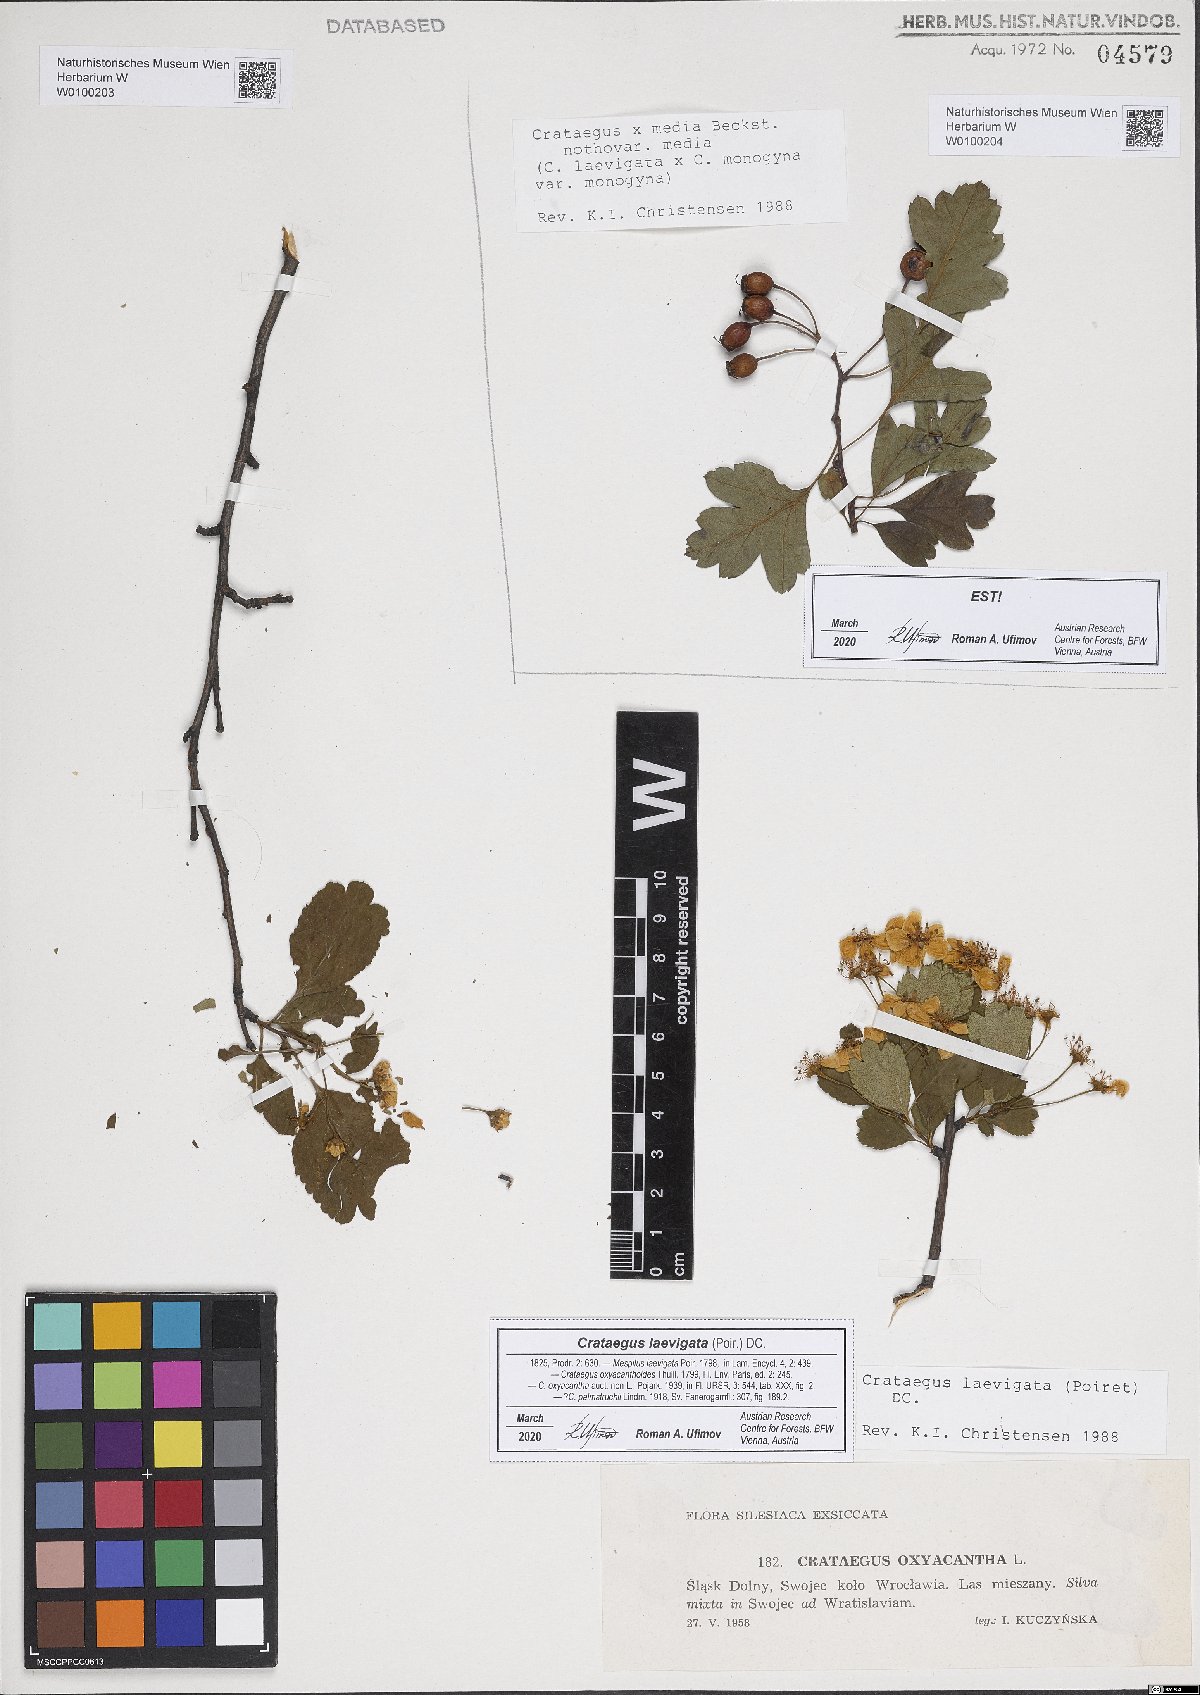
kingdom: Plantae
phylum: Tracheophyta
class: Magnoliopsida
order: Rosales
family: Rosaceae
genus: Crataegus
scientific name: Crataegus laevigata
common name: Midland hawthorn
